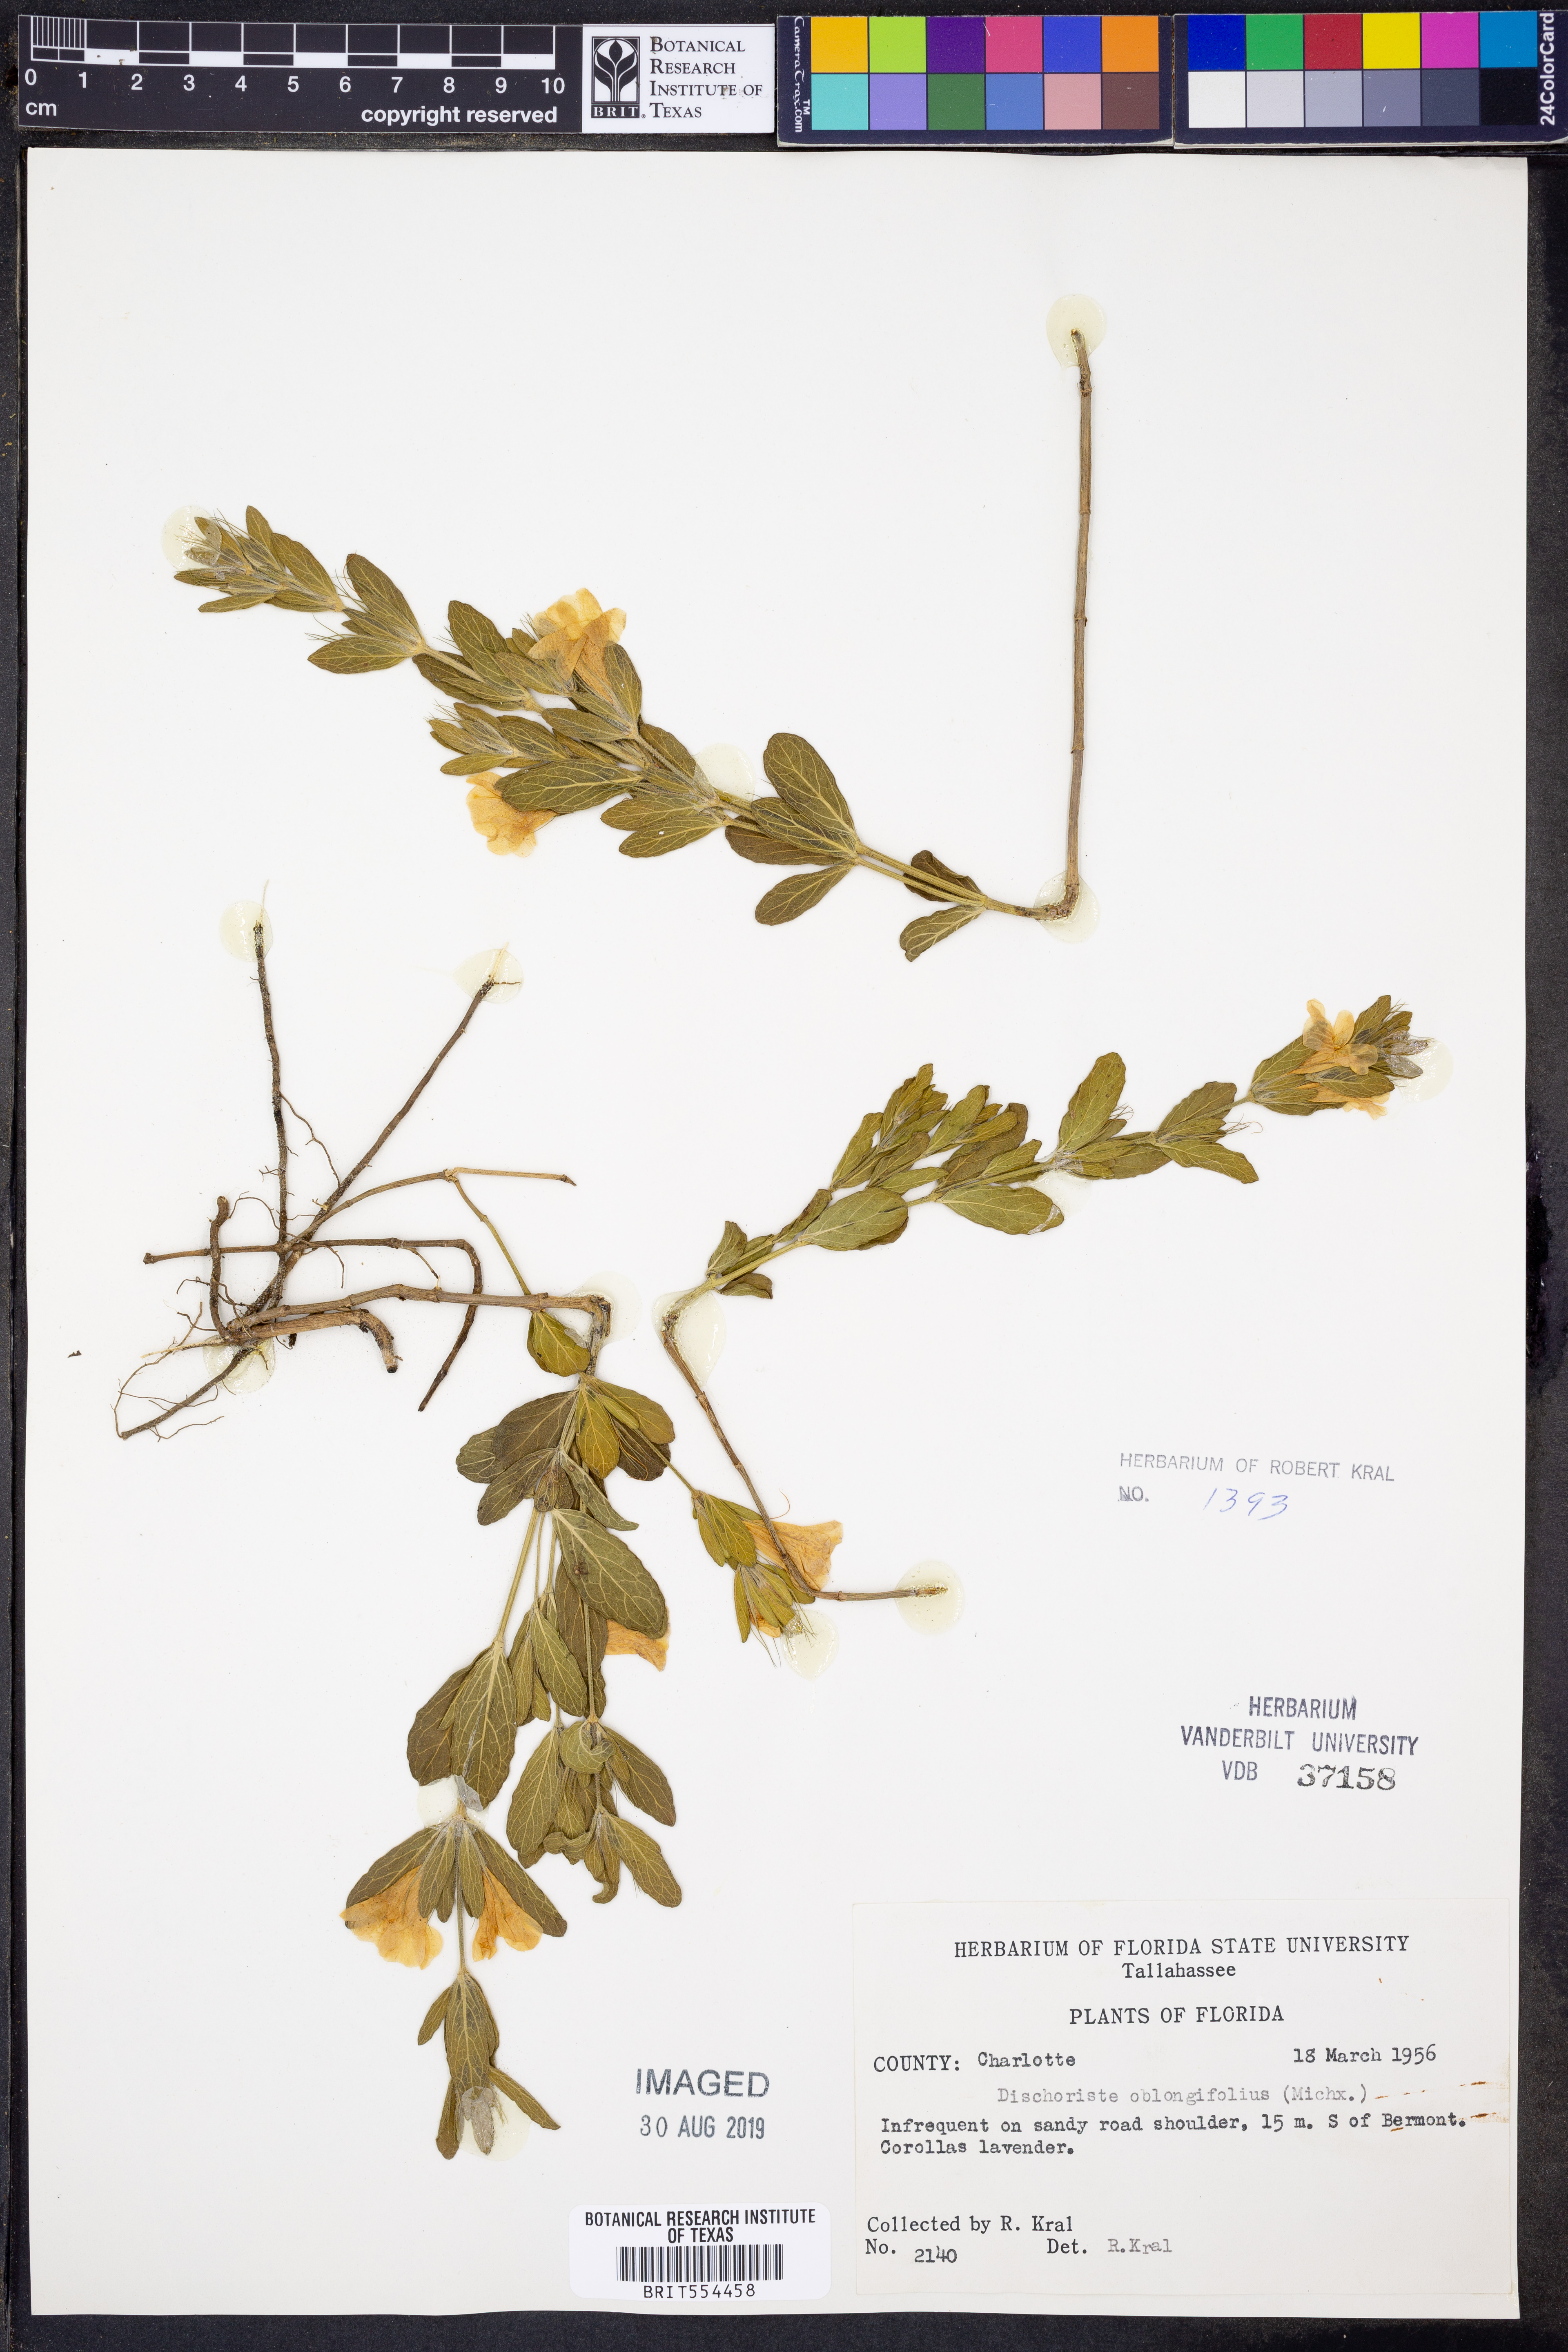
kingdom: Plantae
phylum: Tracheophyta
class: Magnoliopsida
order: Lamiales
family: Acanthaceae
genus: Dyschoriste
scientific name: Dyschoriste oblongifolia
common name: Blue twinflower
